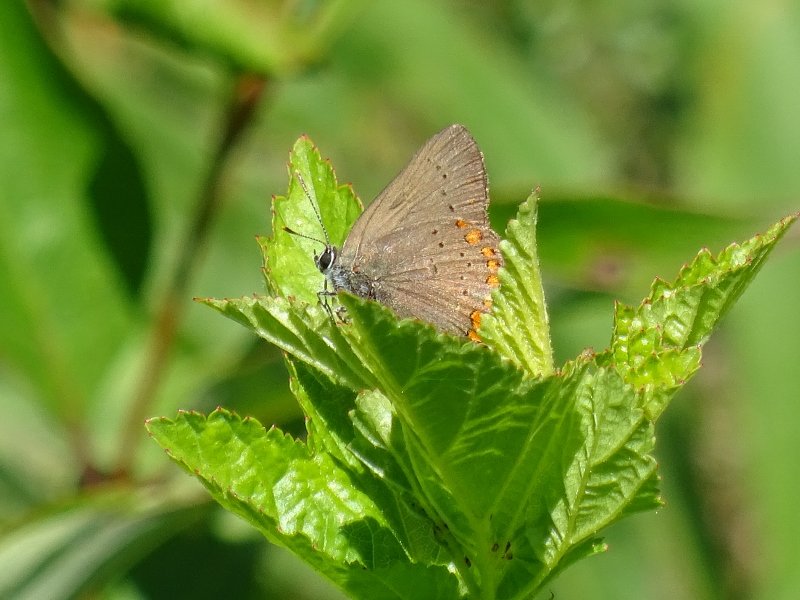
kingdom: Animalia
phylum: Arthropoda
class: Insecta
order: Lepidoptera
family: Lycaenidae
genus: Harkenclenus
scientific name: Harkenclenus titus
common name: Coral Hairstreak
